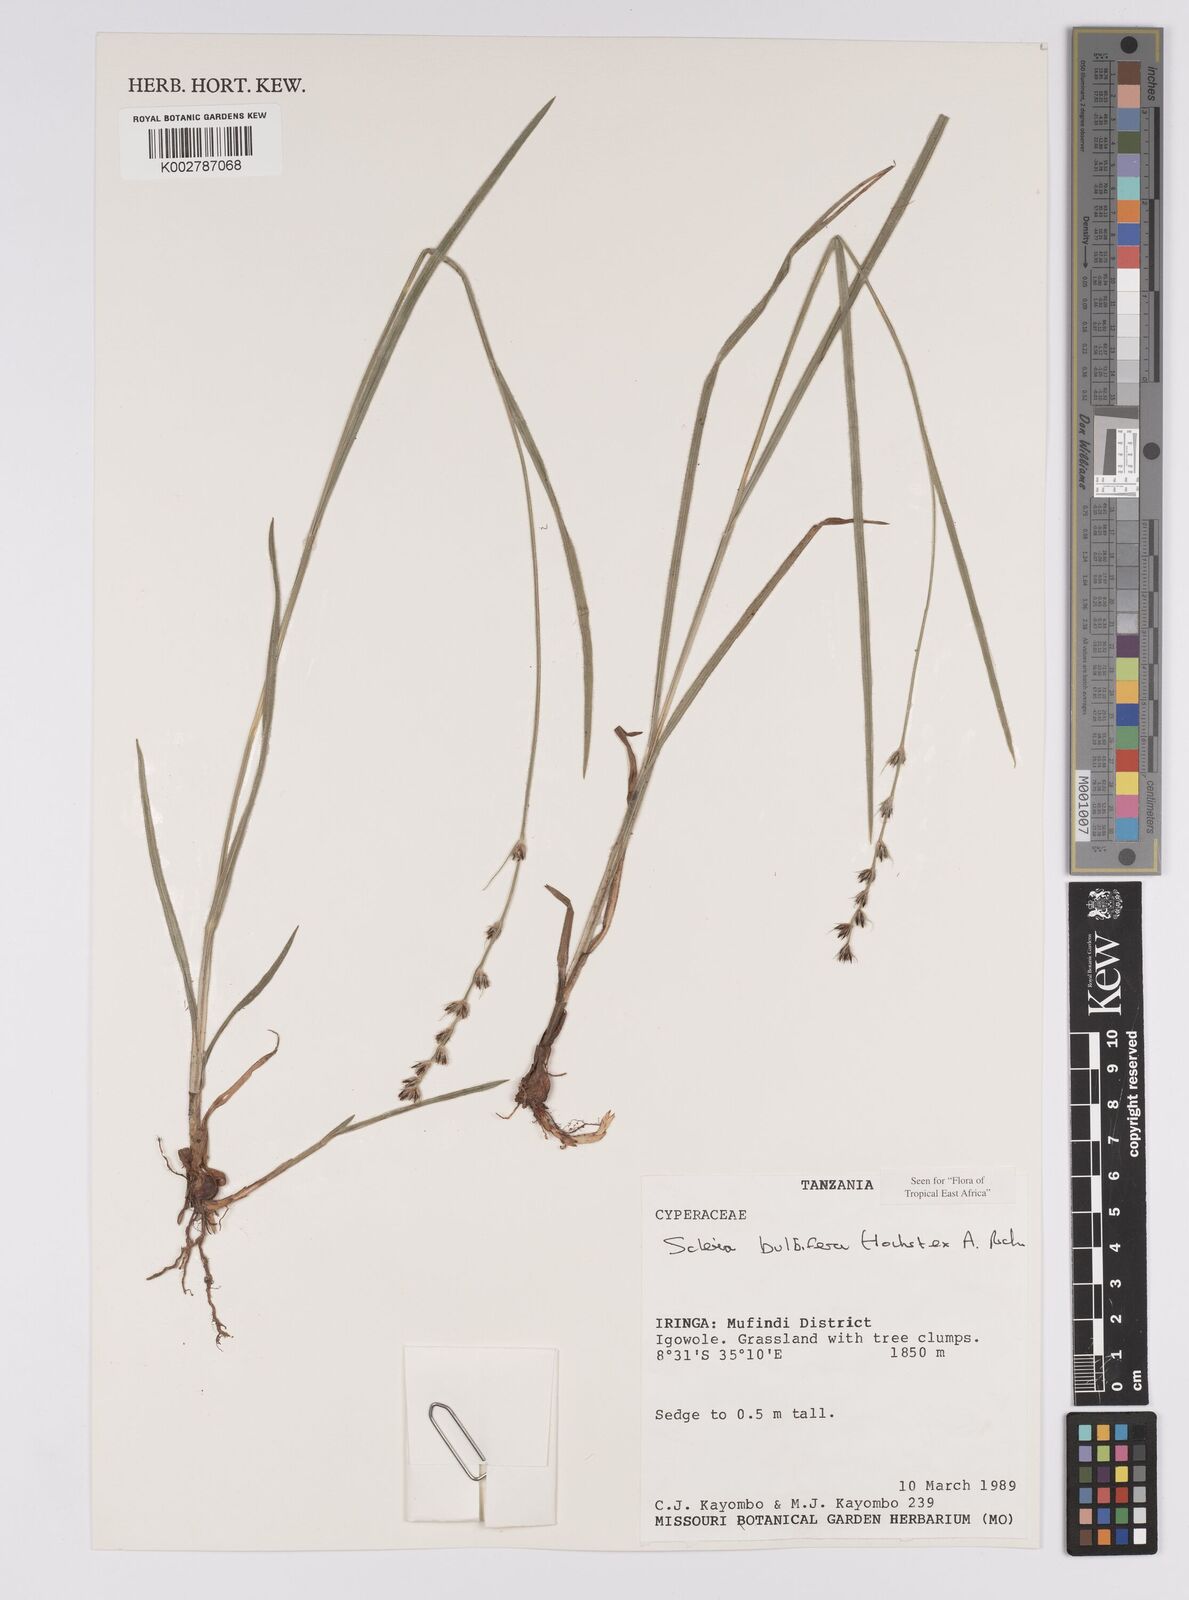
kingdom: Plantae
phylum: Tracheophyta
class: Liliopsida
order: Poales
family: Cyperaceae
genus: Scleria
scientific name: Scleria bulbifera
